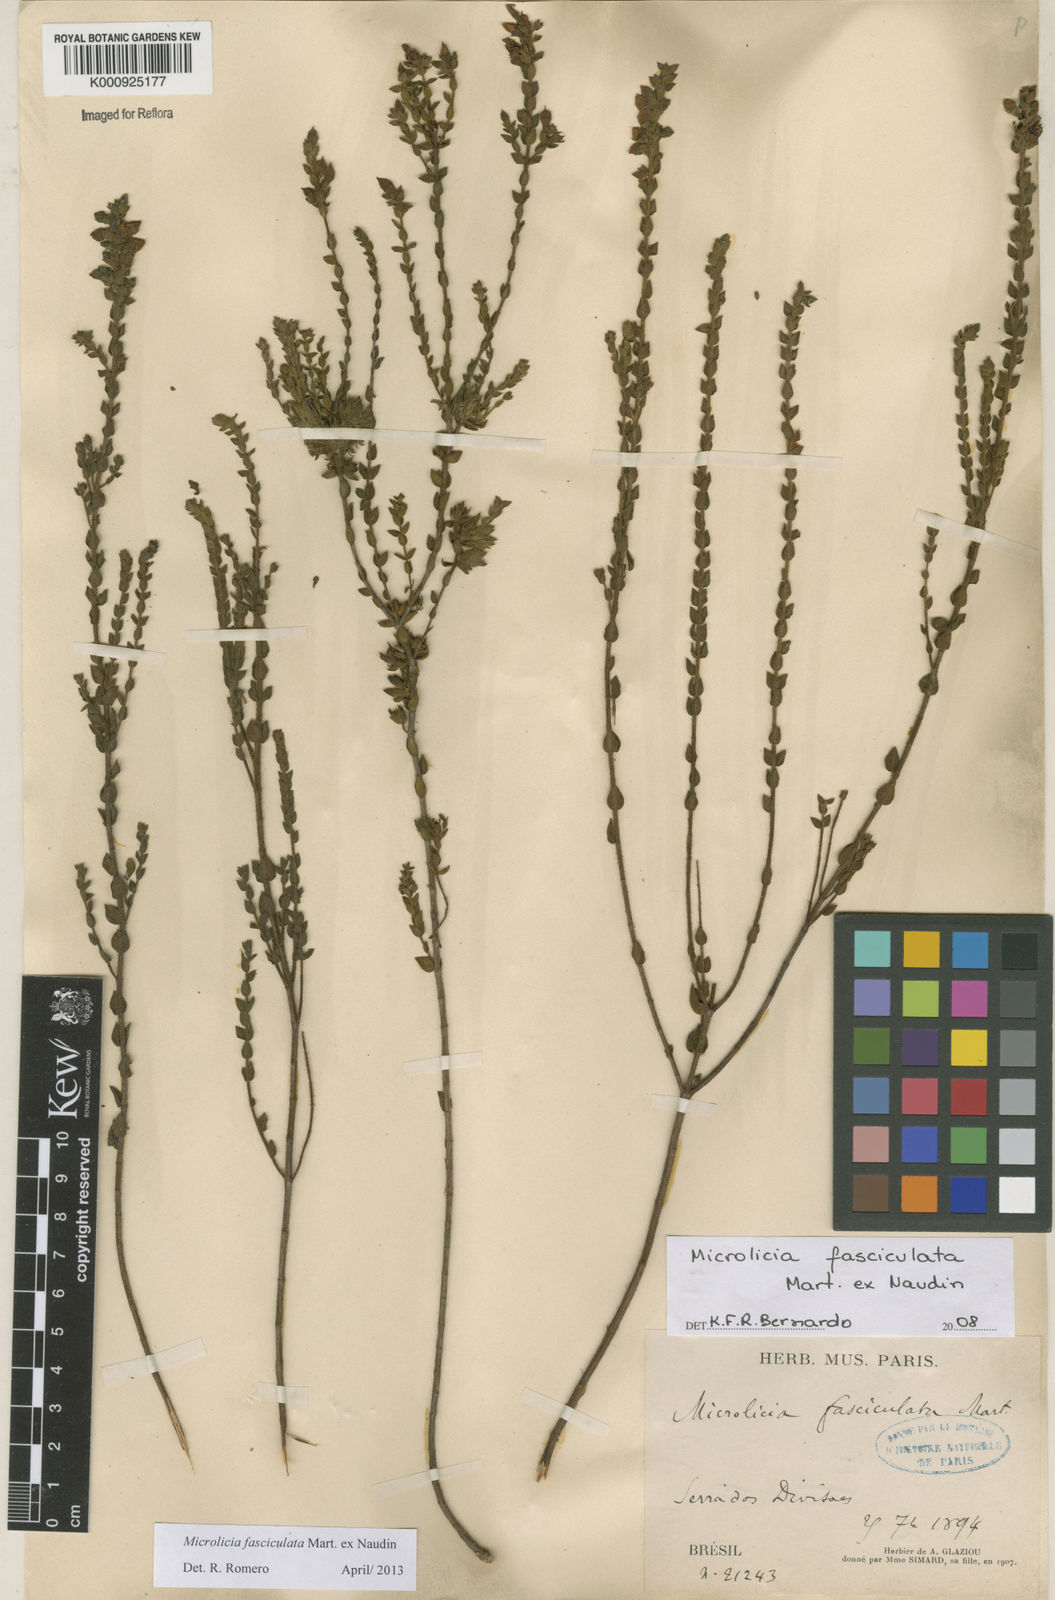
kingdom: Plantae
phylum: Tracheophyta
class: Magnoliopsida
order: Myrtales
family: Melastomataceae
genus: Microlicia
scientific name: Microlicia fasciculata
